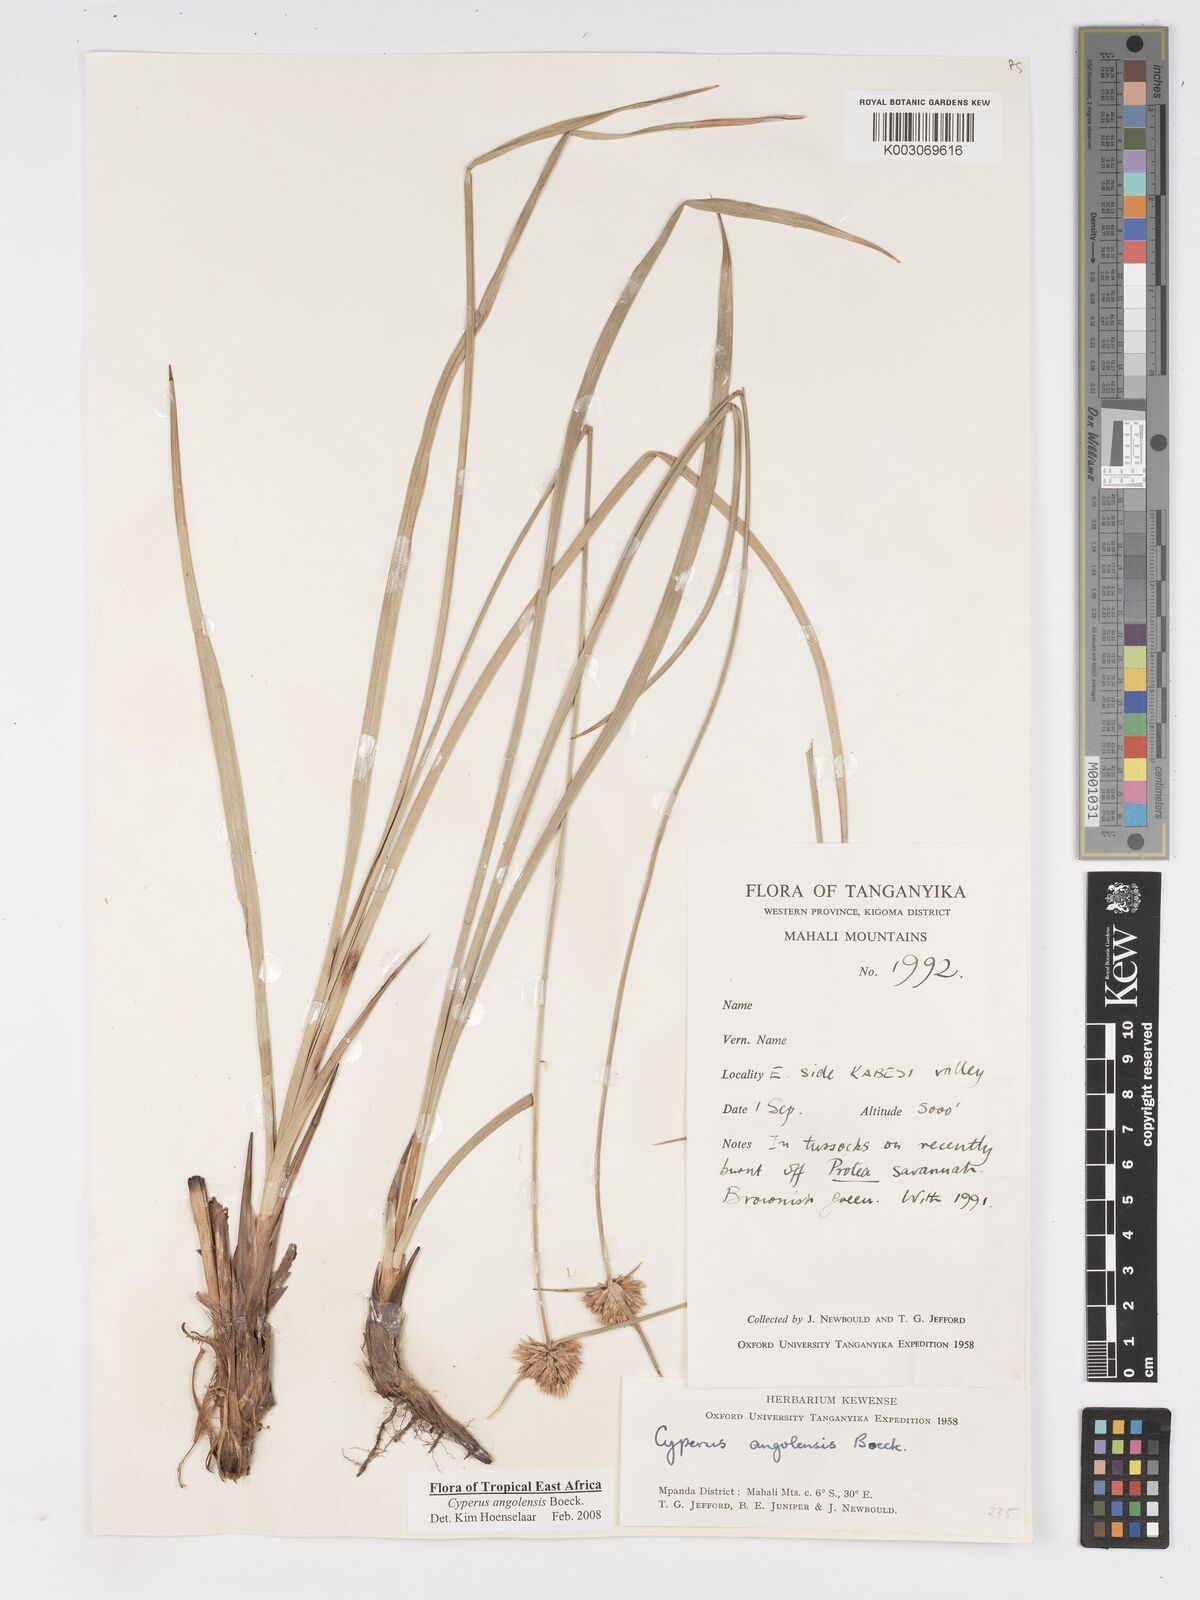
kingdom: Plantae
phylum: Tracheophyta
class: Liliopsida
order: Poales
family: Cyperaceae
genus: Cyperus
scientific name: Cyperus angolensis
